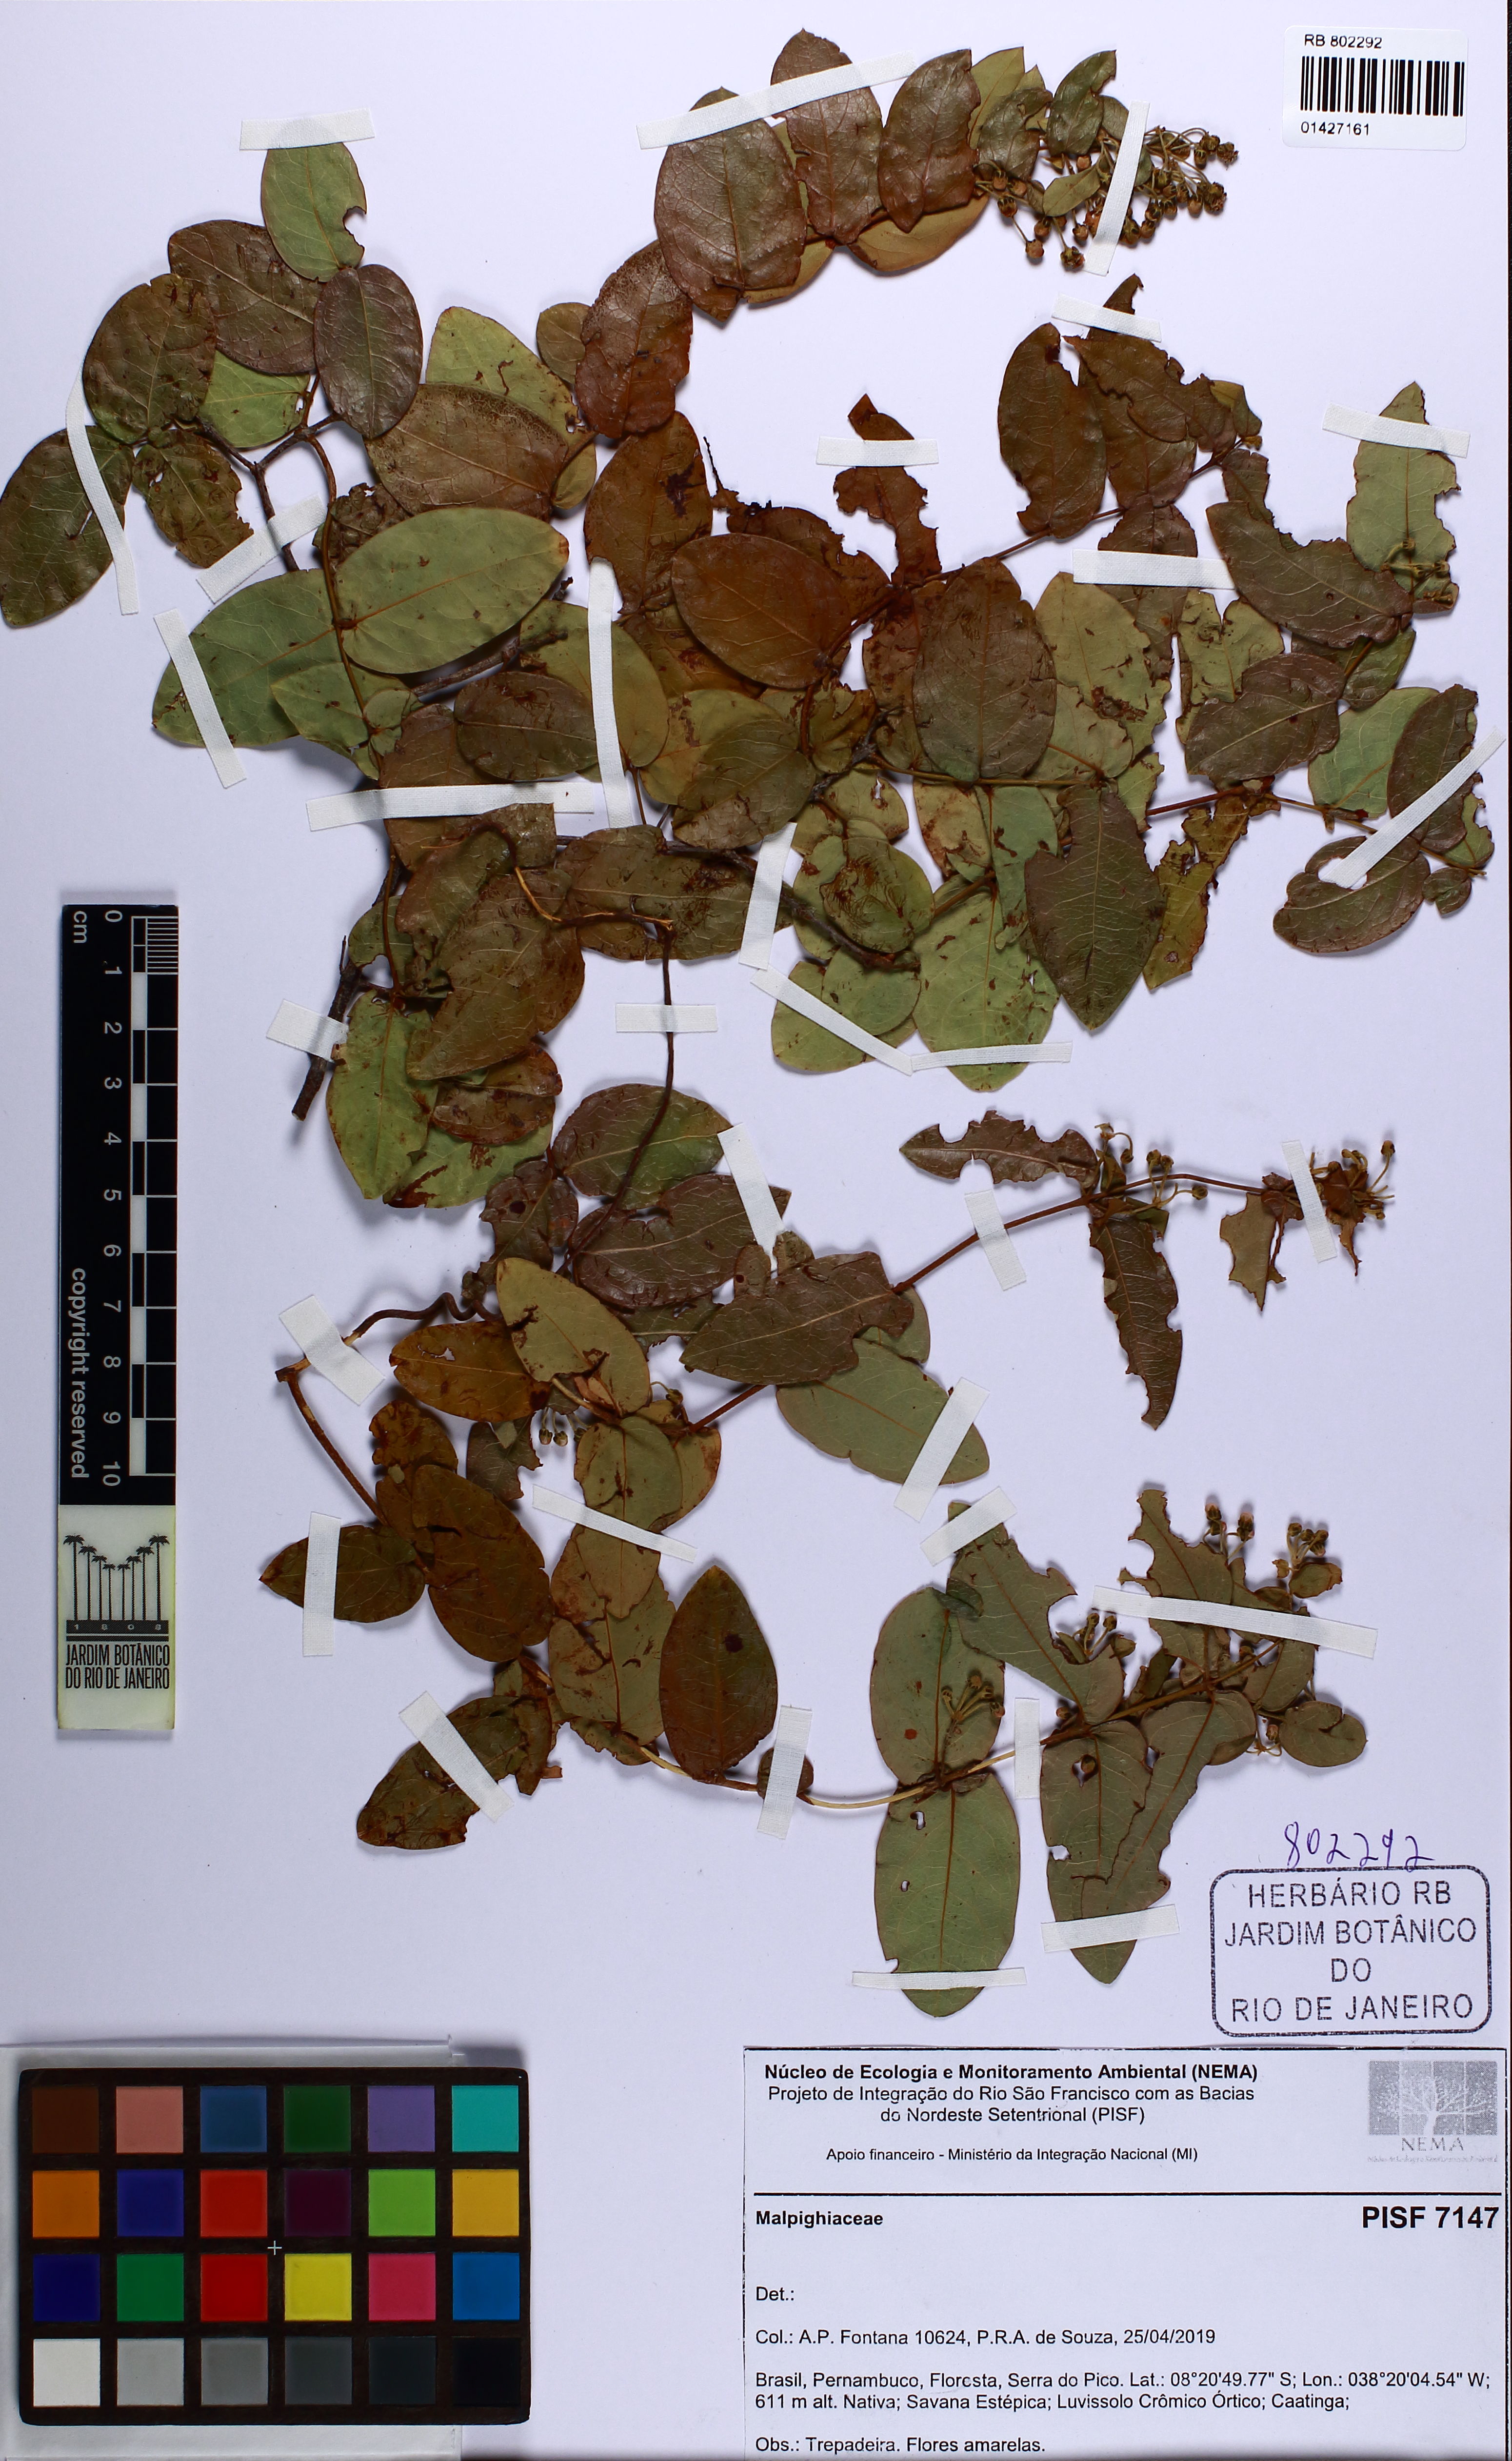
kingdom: Plantae
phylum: Tracheophyta
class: Magnoliopsida
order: Malpighiales
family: Malpighiaceae
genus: Banisteriopsis
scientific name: Banisteriopsis
